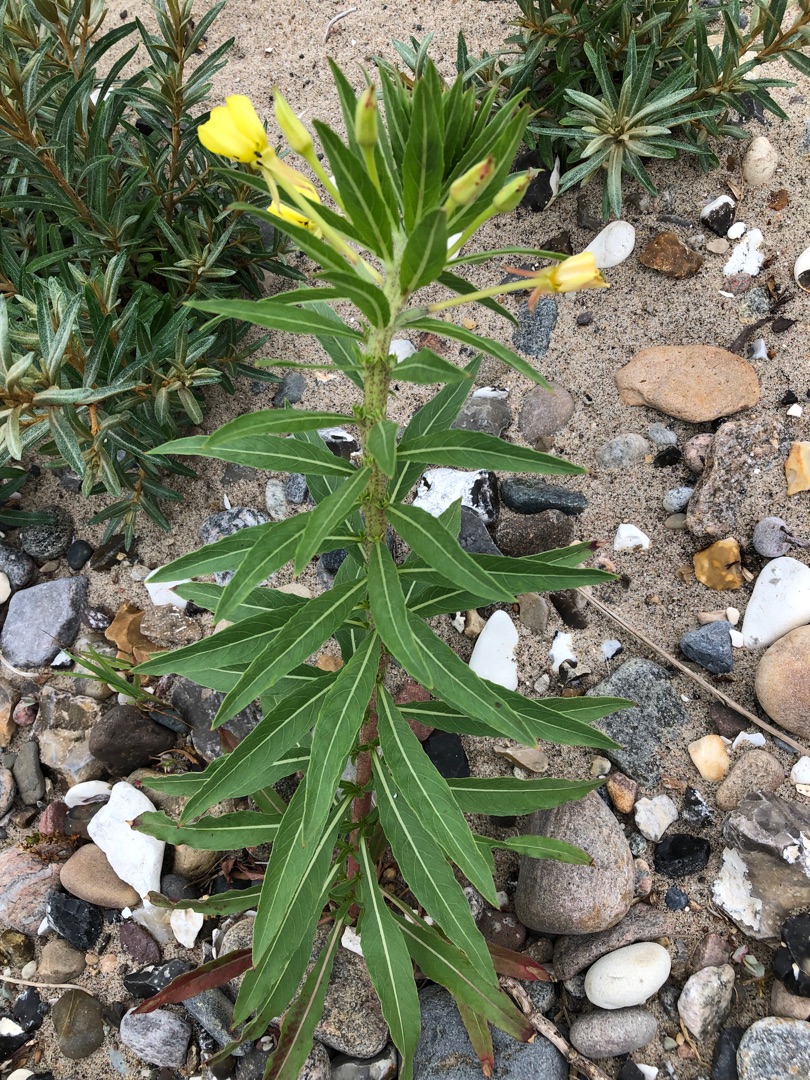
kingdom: Plantae
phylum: Tracheophyta
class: Magnoliopsida
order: Myrtales
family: Onagraceae
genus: Oenothera
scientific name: Oenothera ammophila
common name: Klit-natlys
